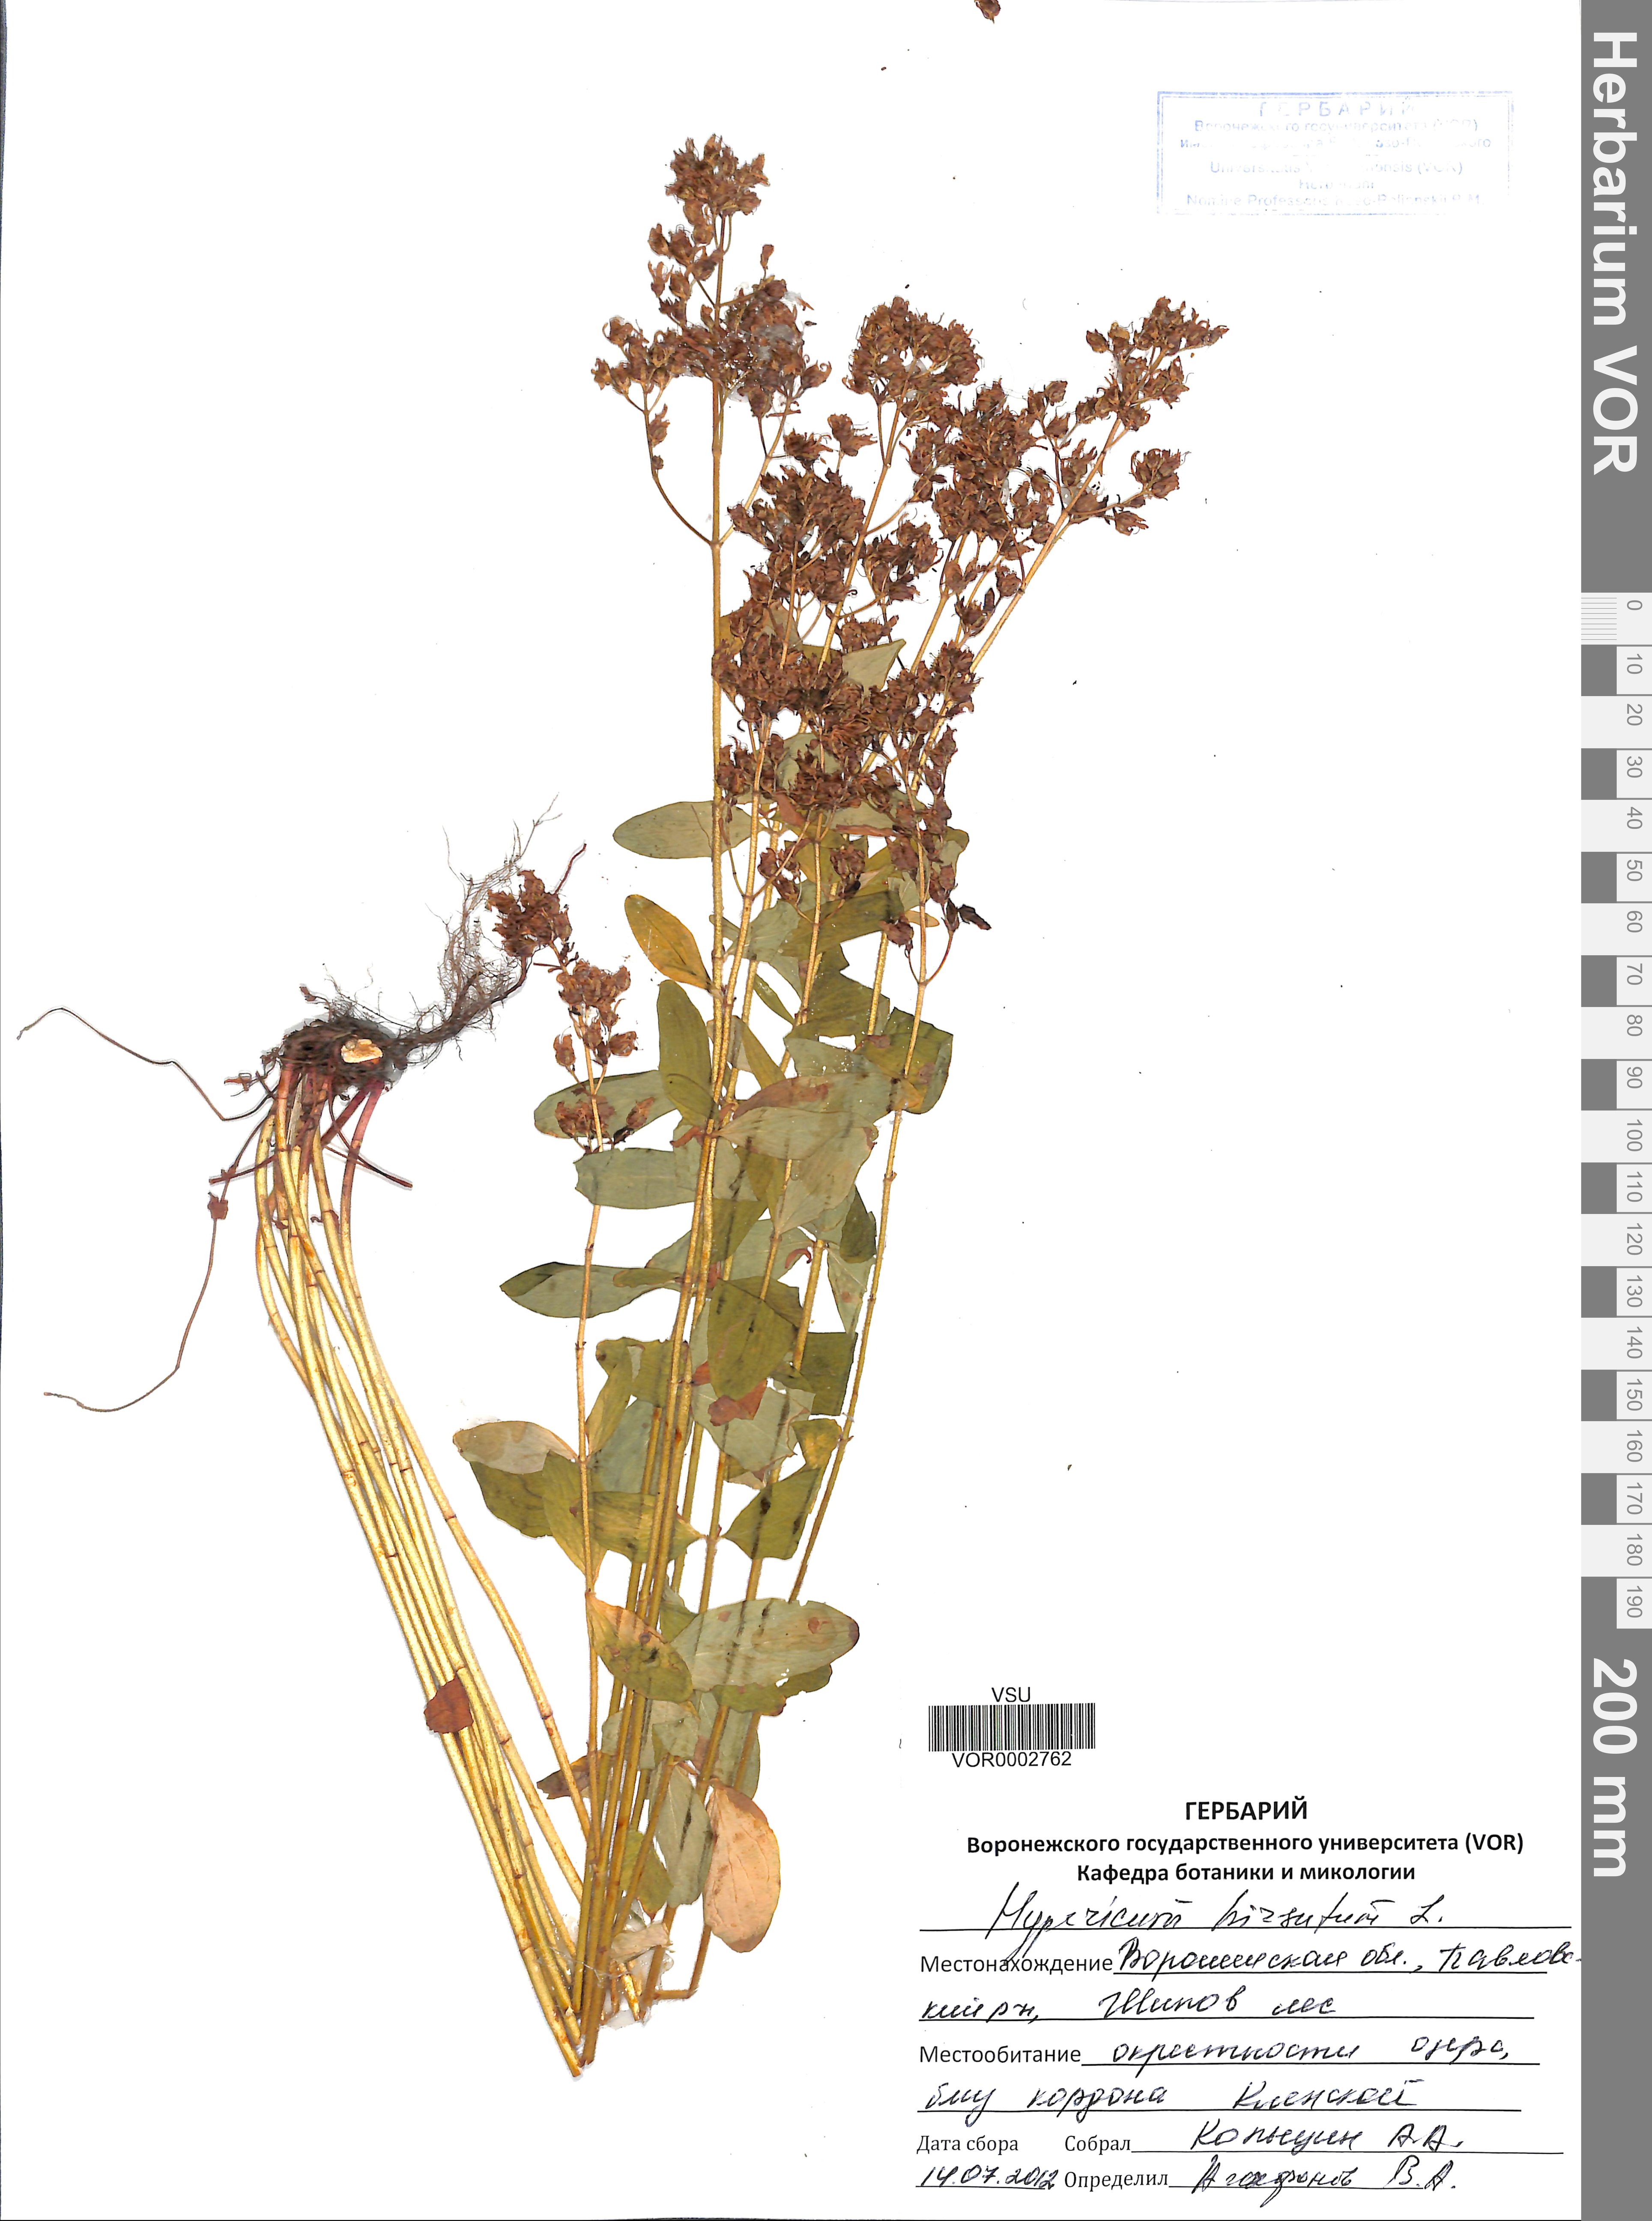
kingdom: Plantae
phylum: Tracheophyta
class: Magnoliopsida
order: Malpighiales
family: Hypericaceae
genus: Hypericum
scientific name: Hypericum hirsutum
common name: Hairy st. john's-wort
